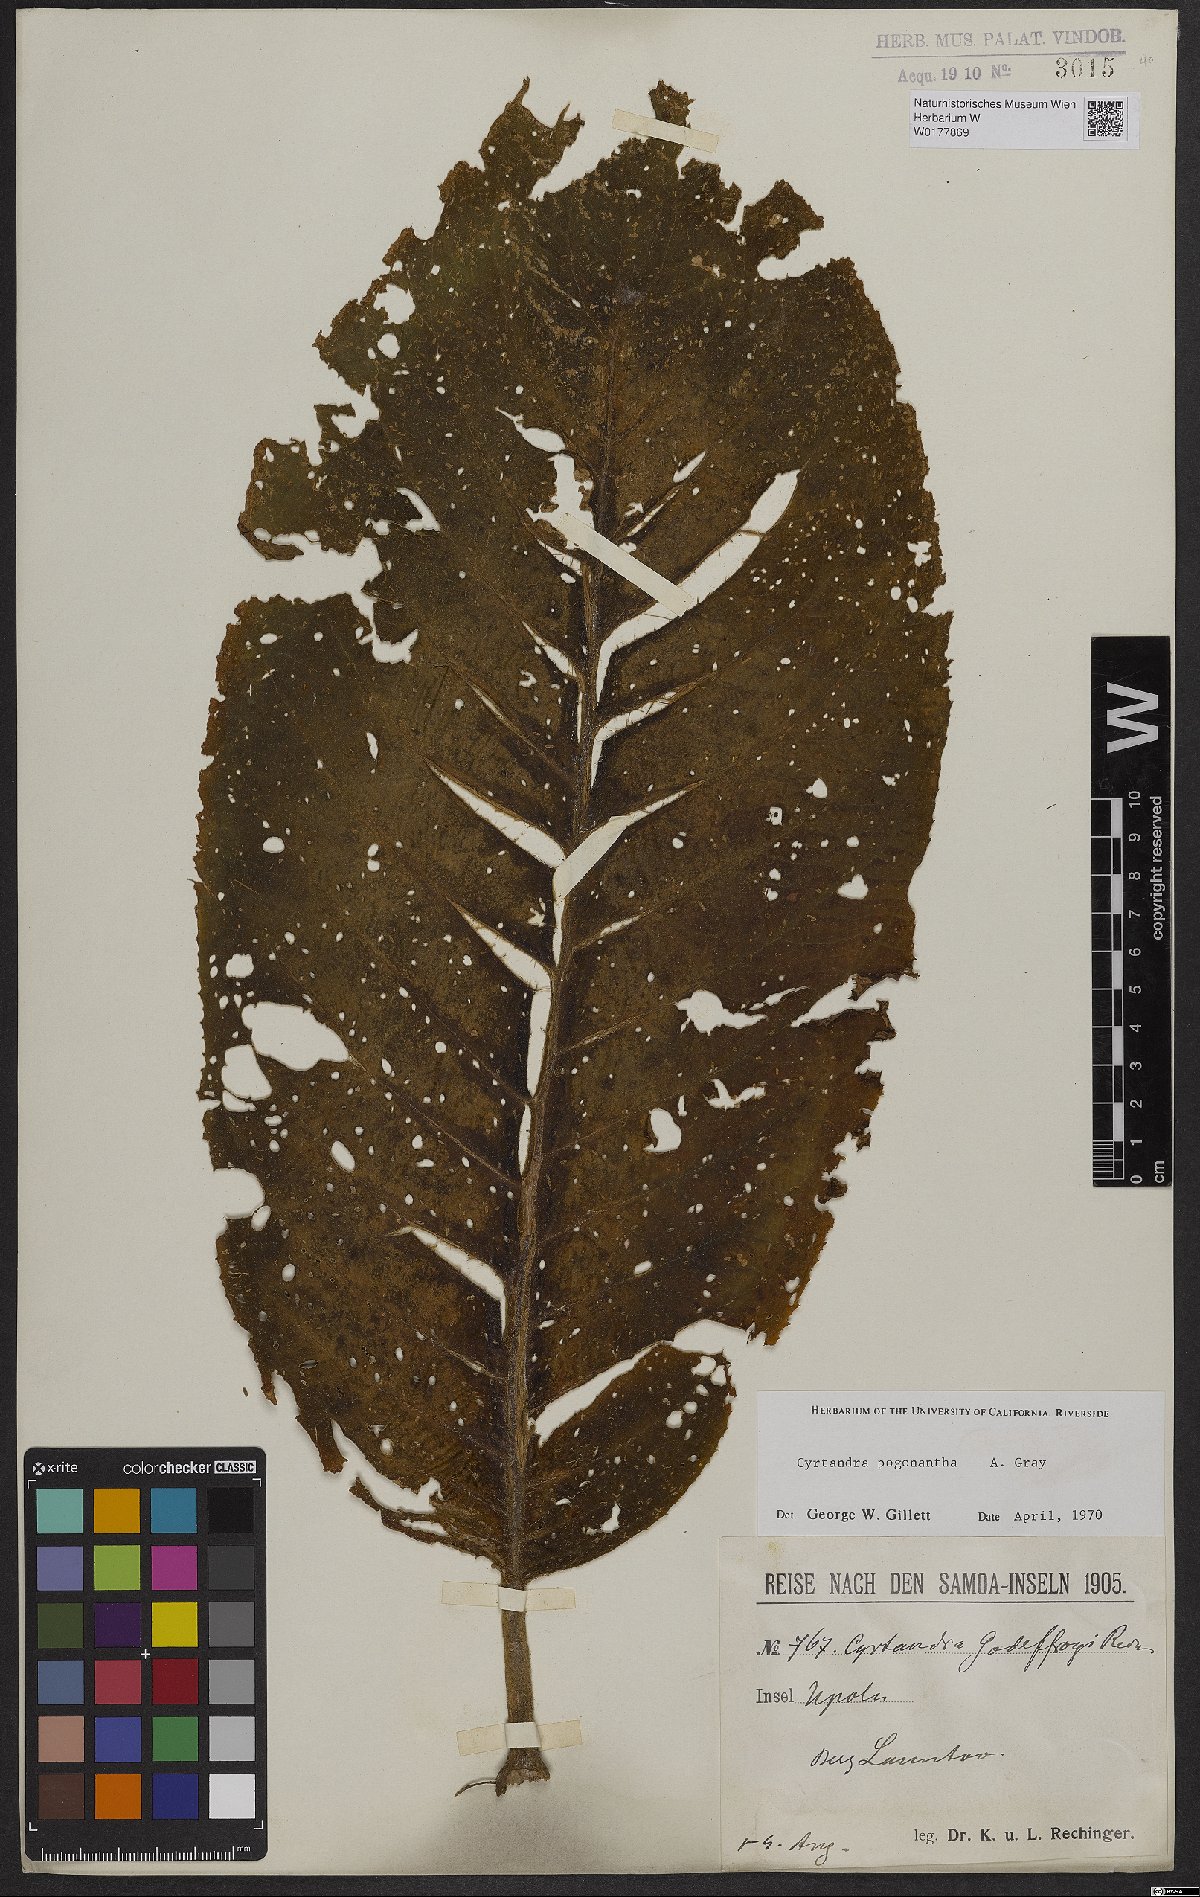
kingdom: Plantae
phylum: Tracheophyta
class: Magnoliopsida
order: Lamiales
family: Gesneriaceae
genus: Cyrtandra
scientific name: Cyrtandra pogonantha
